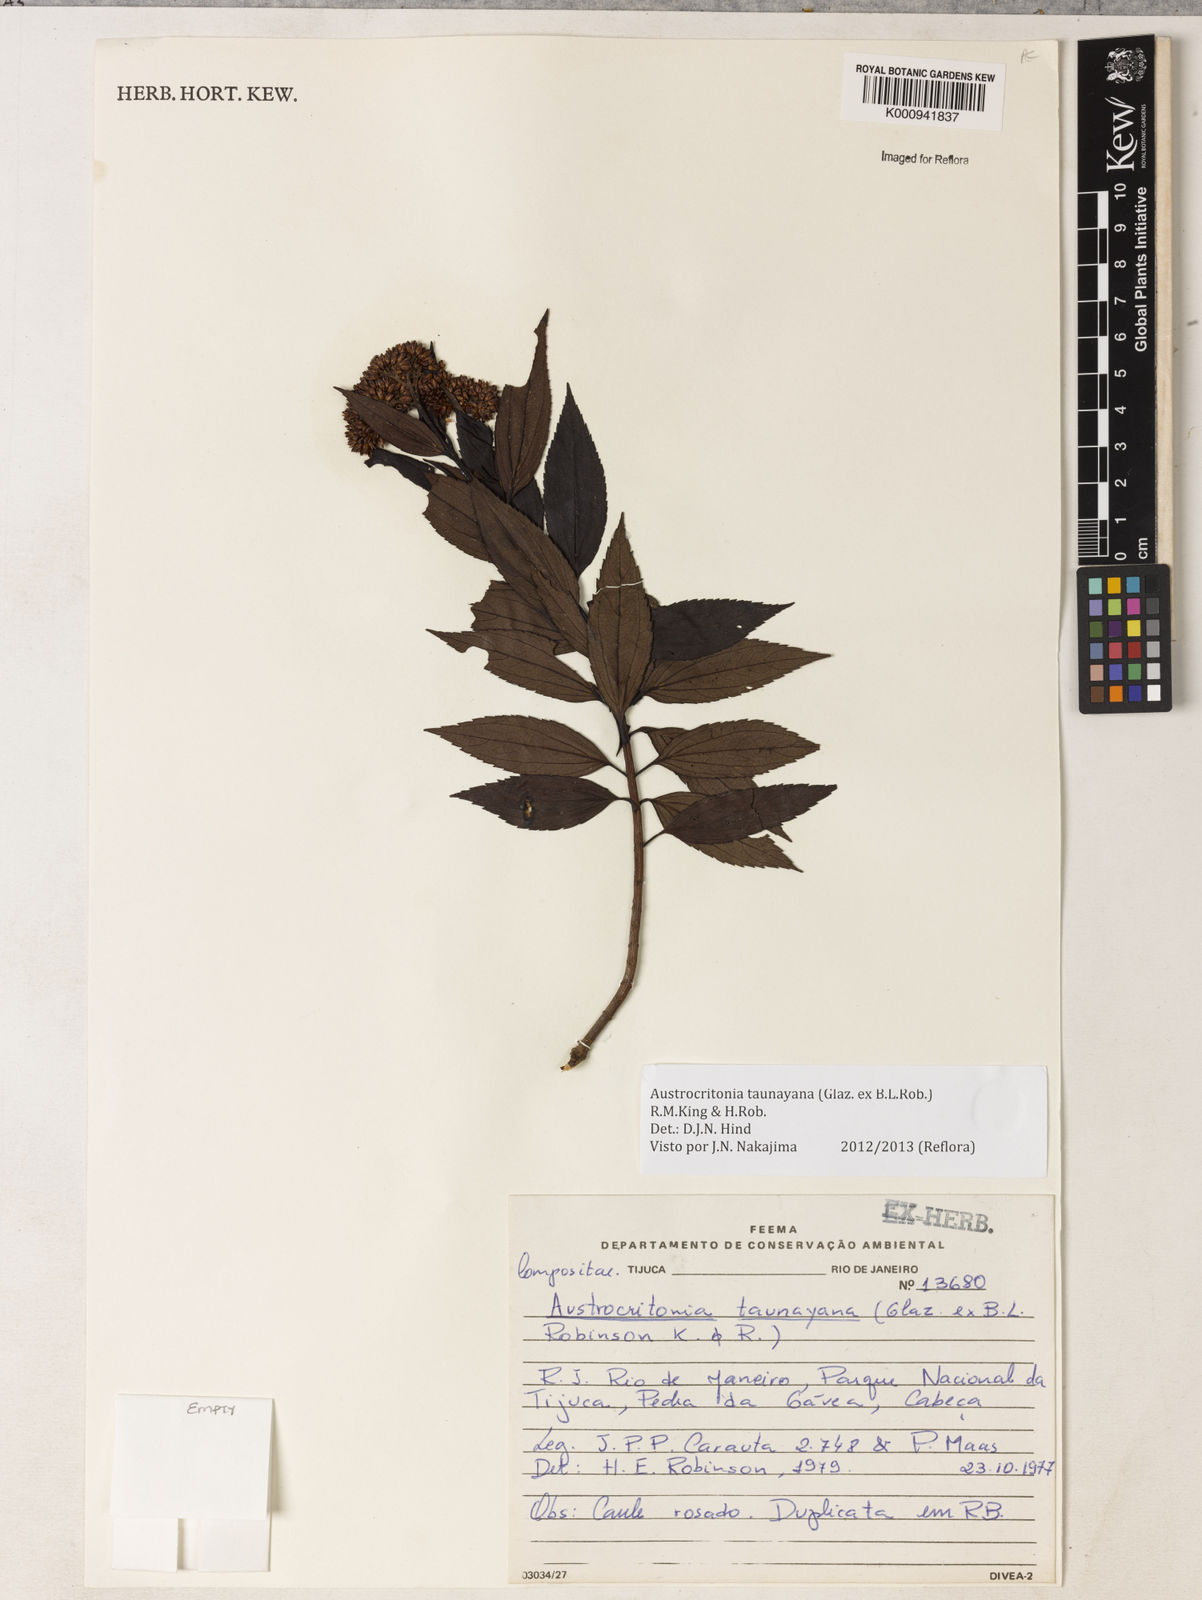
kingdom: Plantae
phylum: Tracheophyta
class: Magnoliopsida
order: Asterales
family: Asteraceae
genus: Austrocritonia
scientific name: Austrocritonia taunayana
